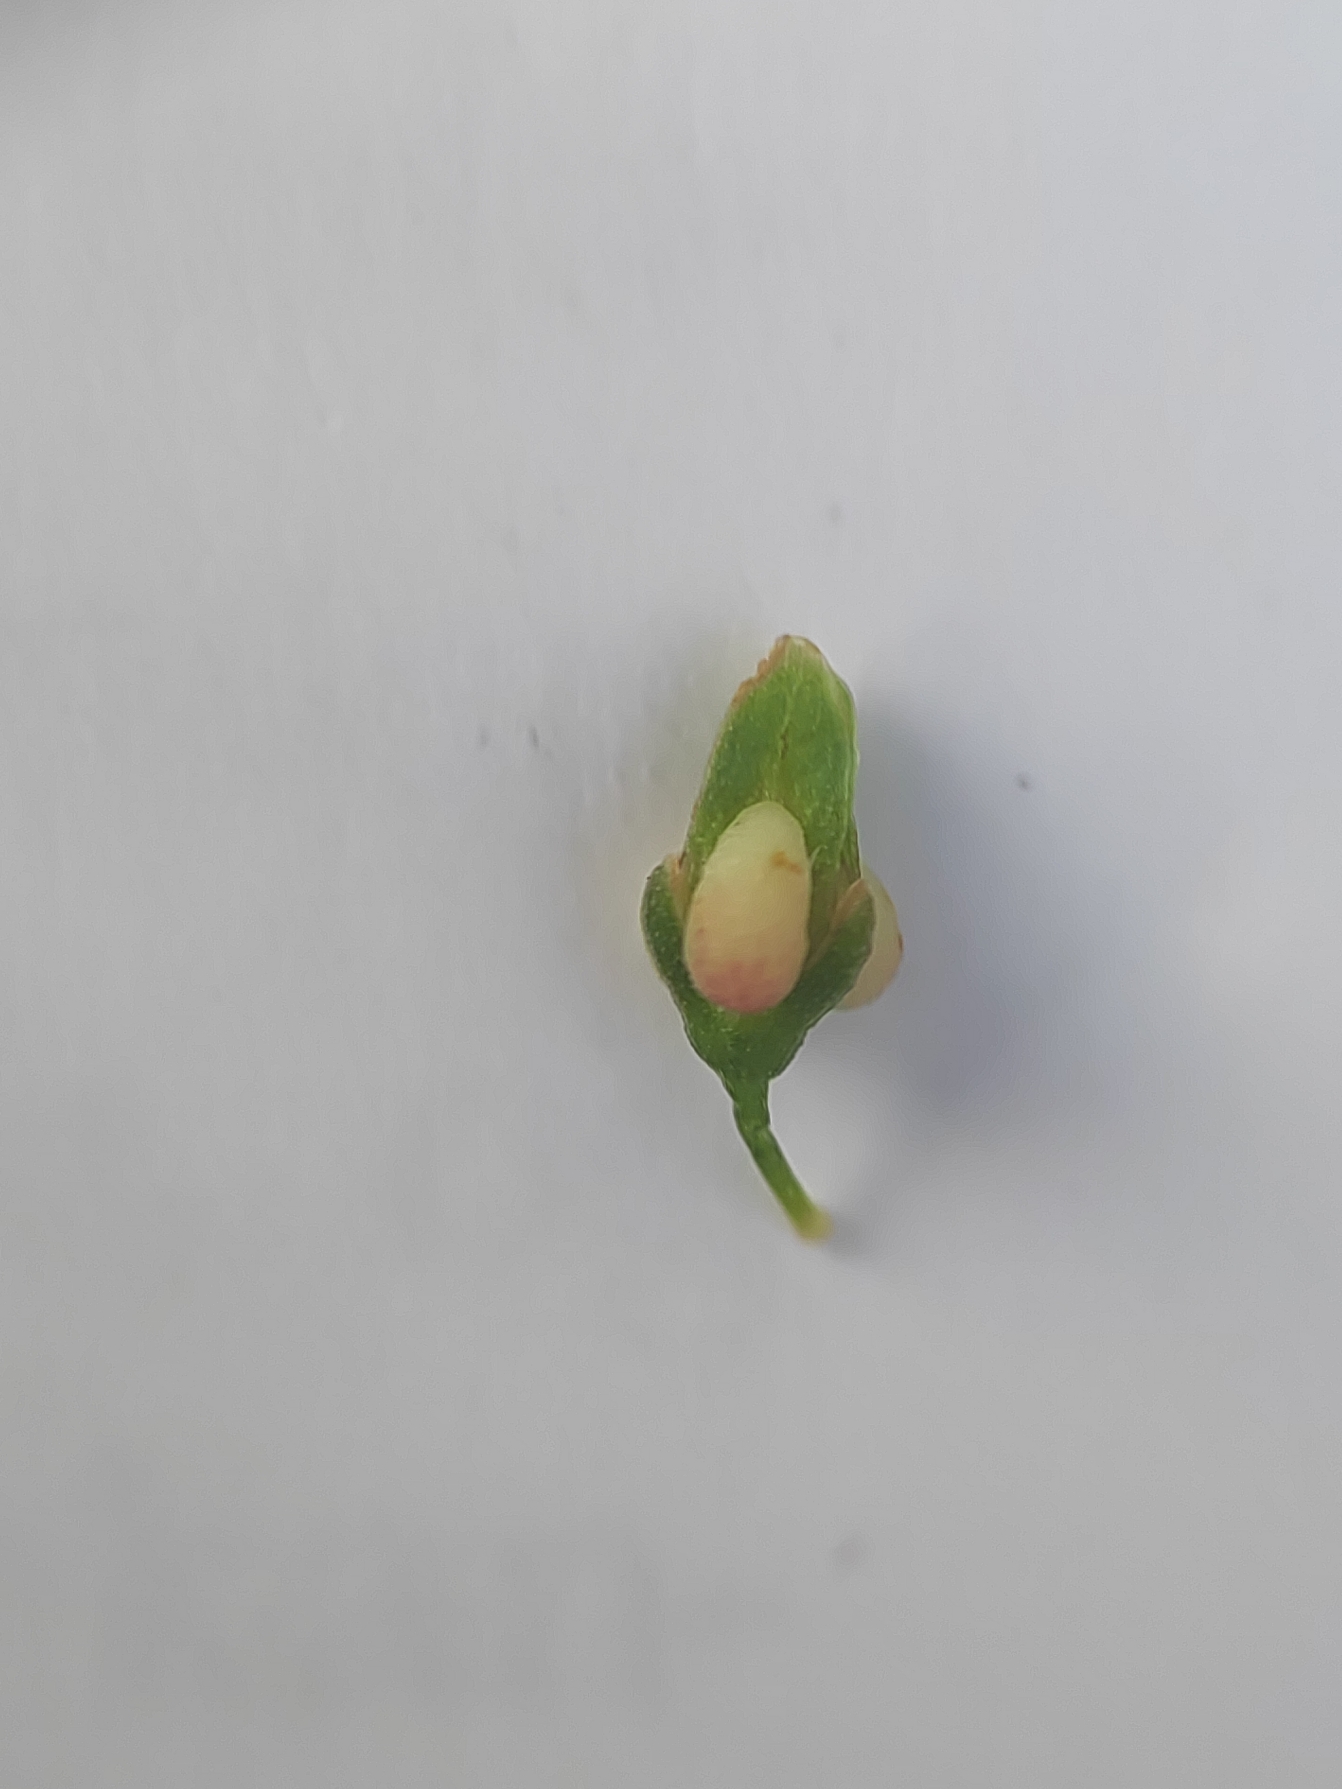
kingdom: Plantae
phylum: Tracheophyta
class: Magnoliopsida
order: Caryophyllales
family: Polygonaceae
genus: Rumex
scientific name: Rumex conglomeratus
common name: Nøgle-skræppe
